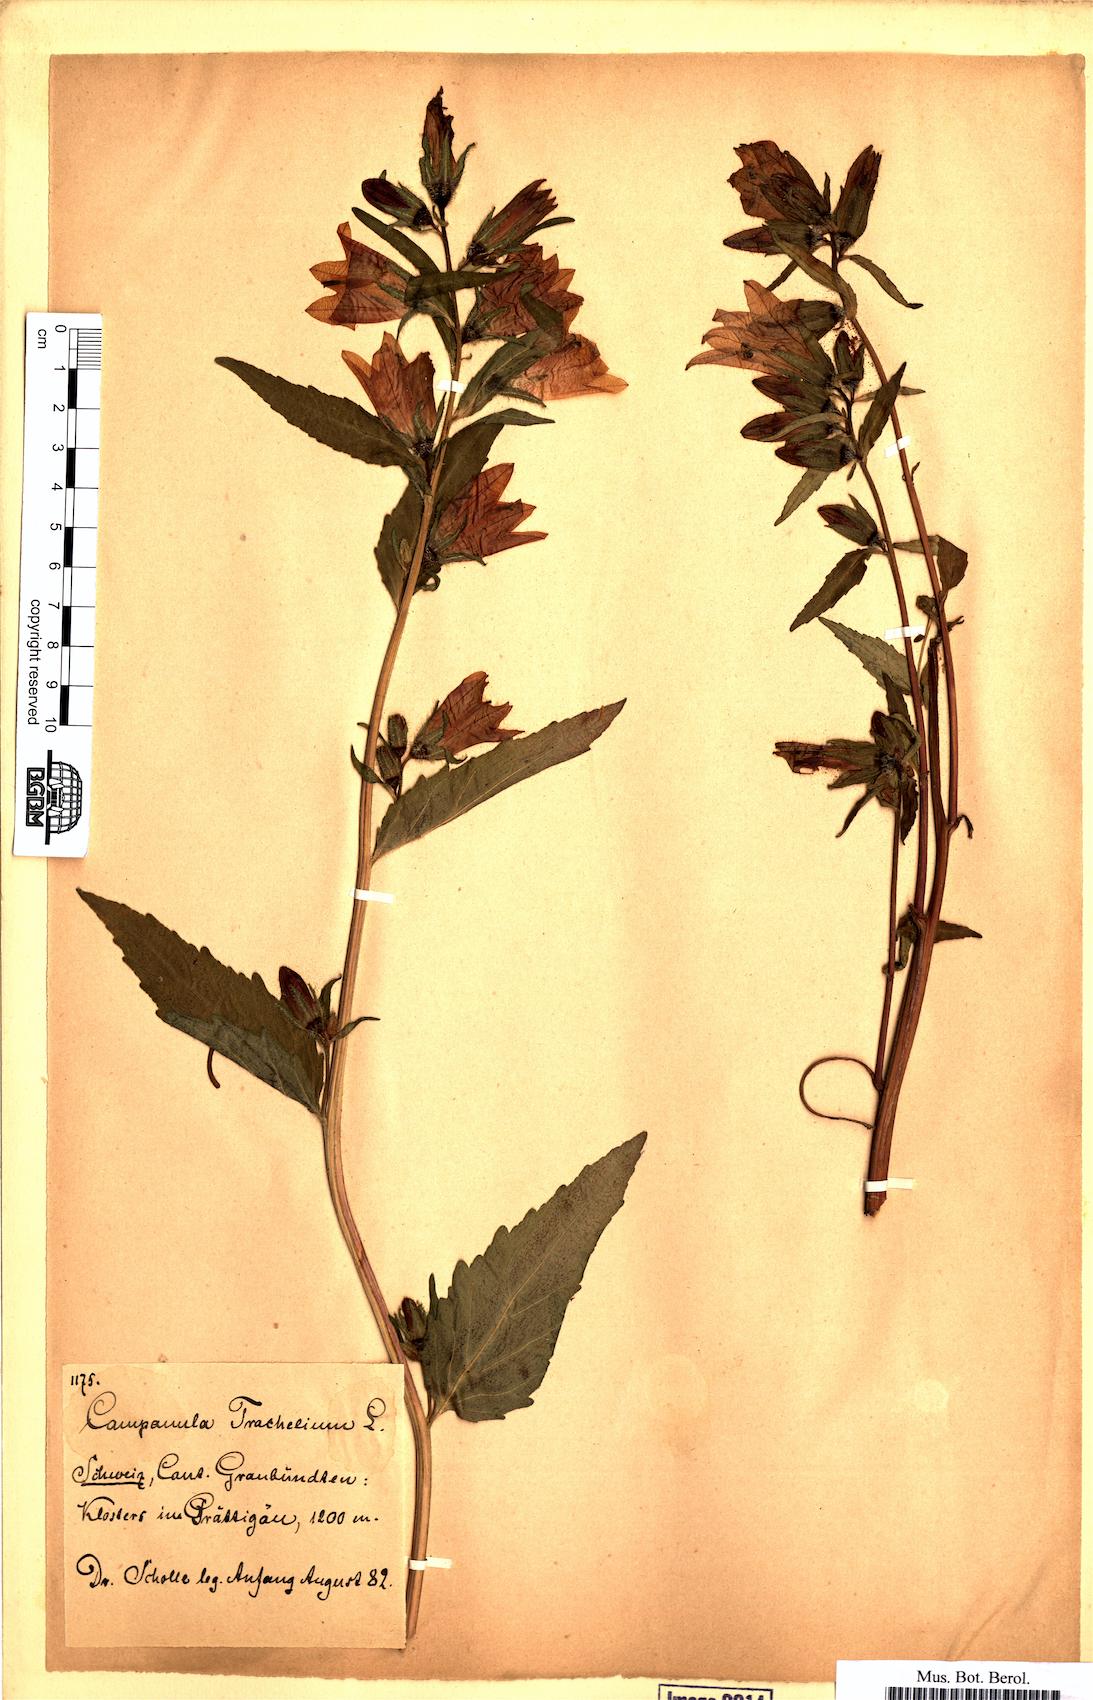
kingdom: Plantae
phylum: Tracheophyta
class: Magnoliopsida
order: Asterales
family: Campanulaceae
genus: Campanula
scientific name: Campanula trachelium
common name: Nettle-leaved bellflower
